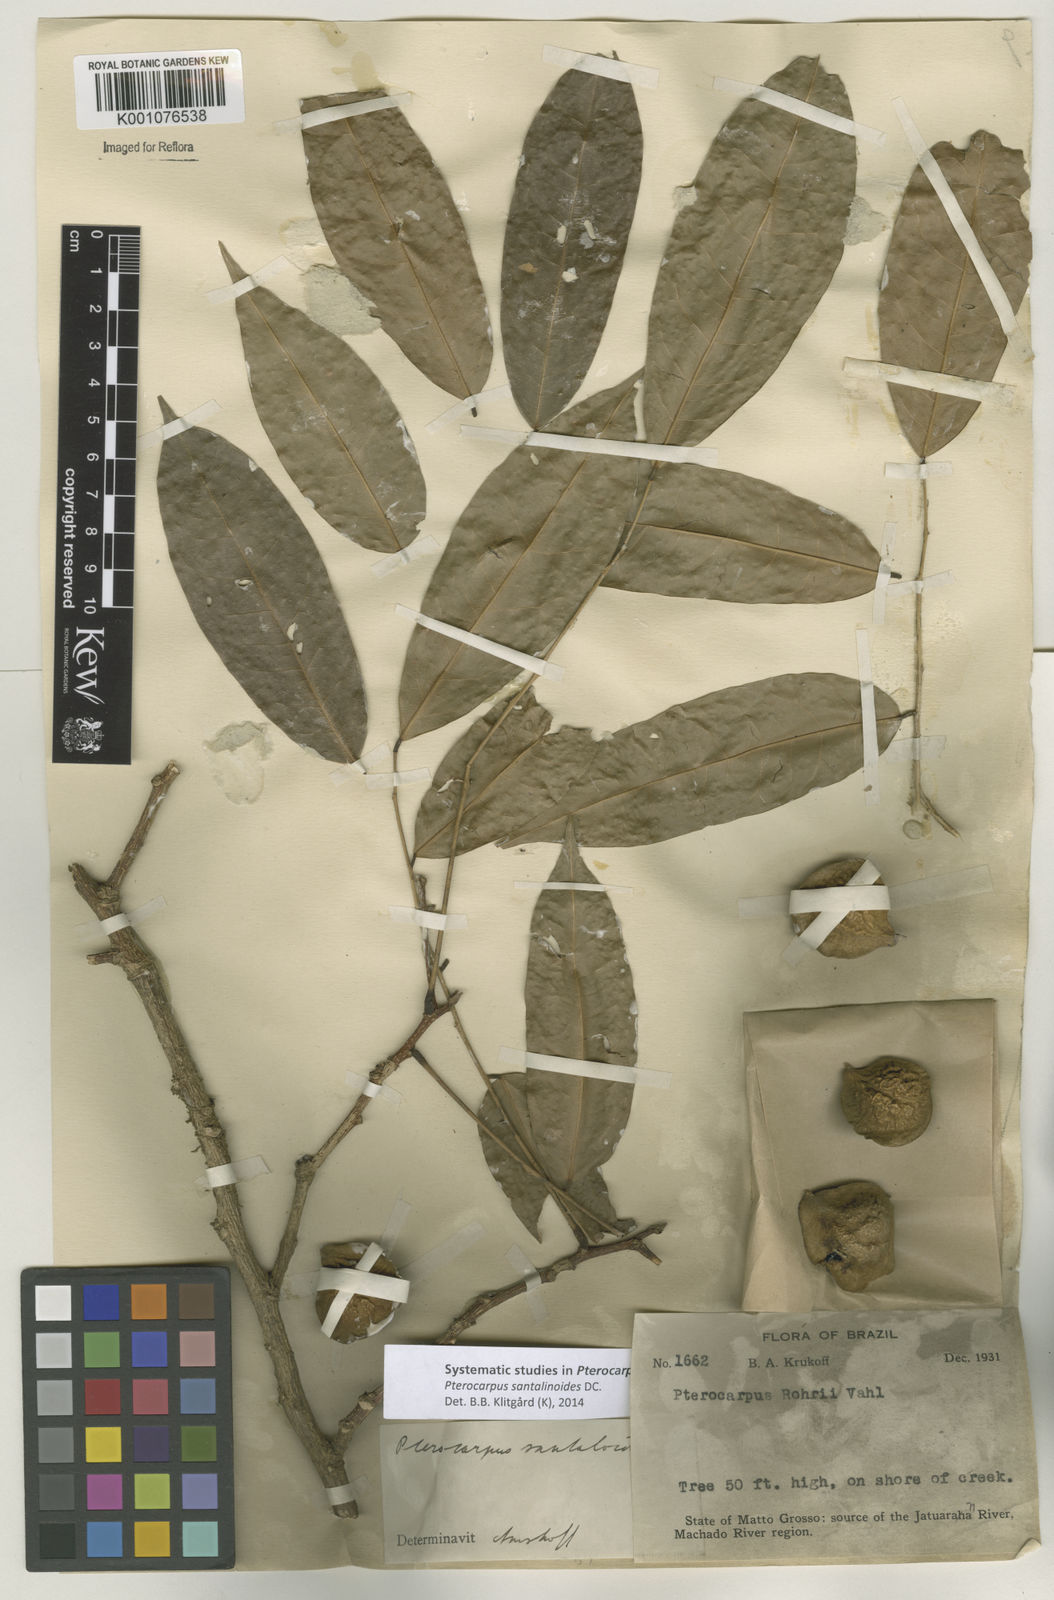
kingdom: Plantae
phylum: Tracheophyta
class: Magnoliopsida
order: Fabales
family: Fabaceae
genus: Pterocarpus
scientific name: Pterocarpus santalinoides
